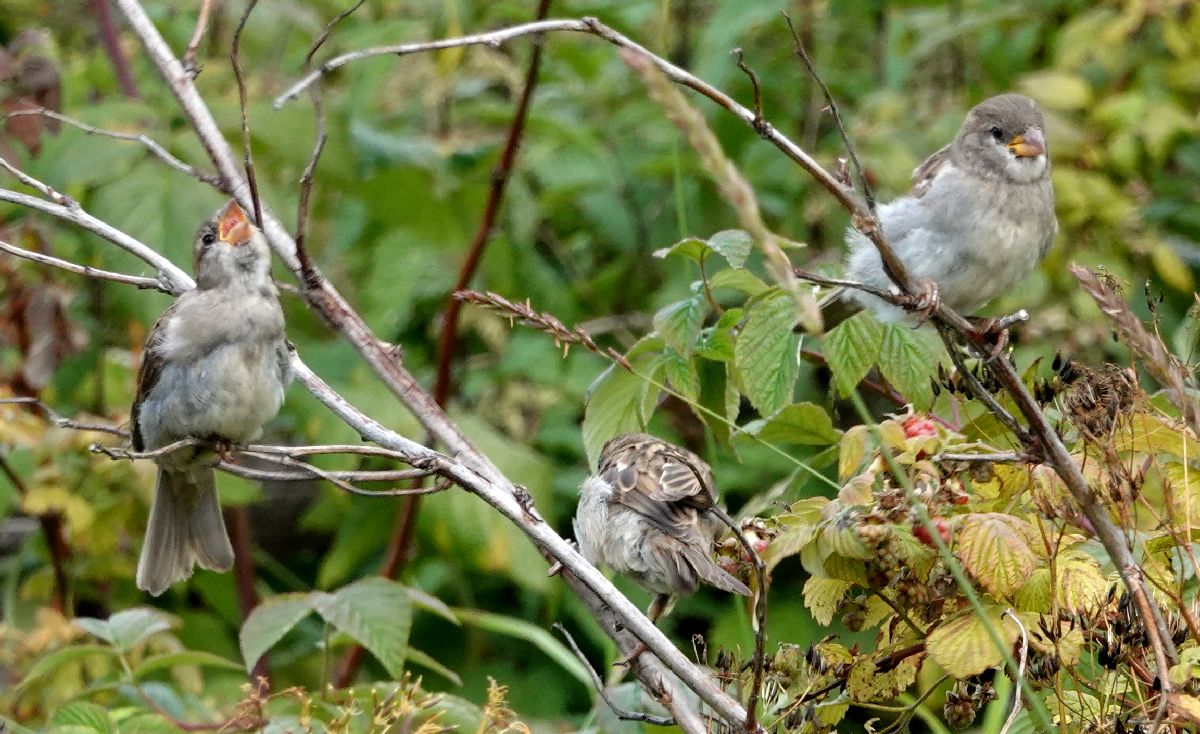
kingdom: Animalia
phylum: Chordata
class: Aves
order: Passeriformes
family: Passeridae
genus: Passer
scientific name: Passer domesticus
